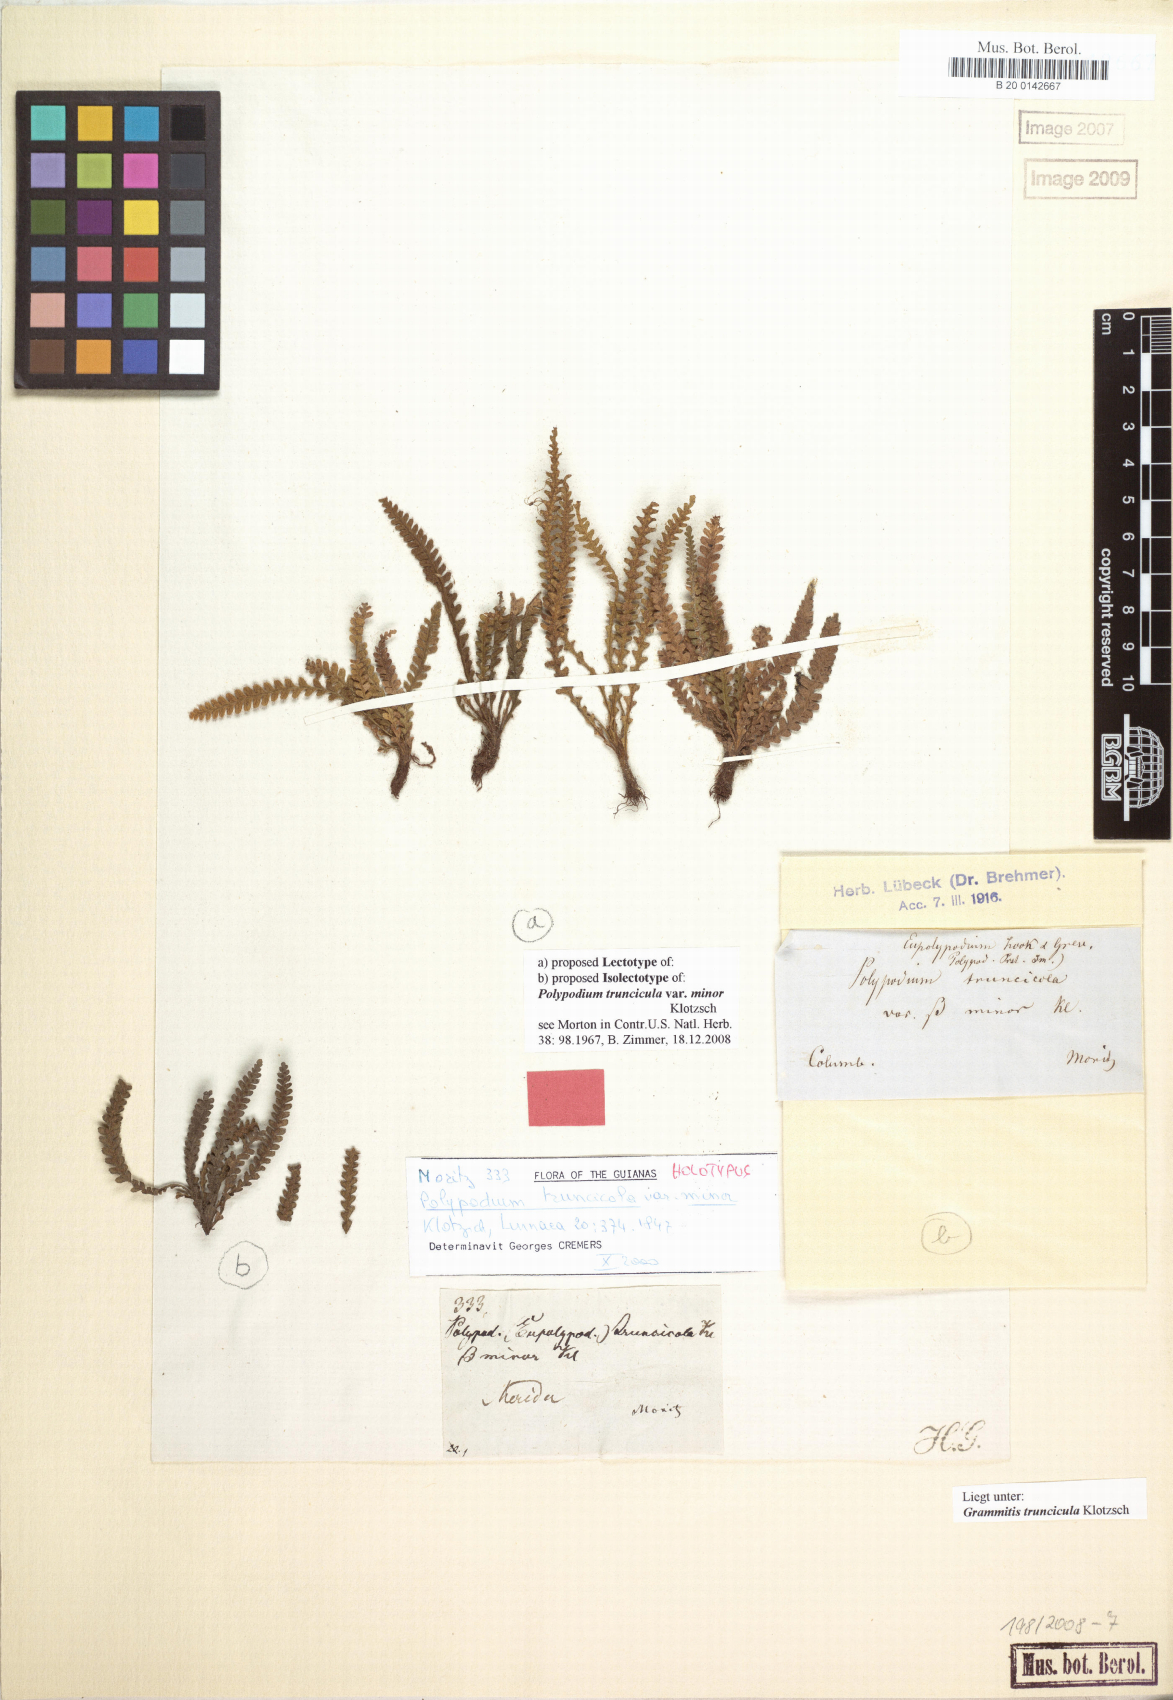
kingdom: Plantae
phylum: Tracheophyta
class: Polypodiopsida
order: Polypodiales
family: Polypodiaceae
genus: Moranopteris
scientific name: Moranopteris truncicola
